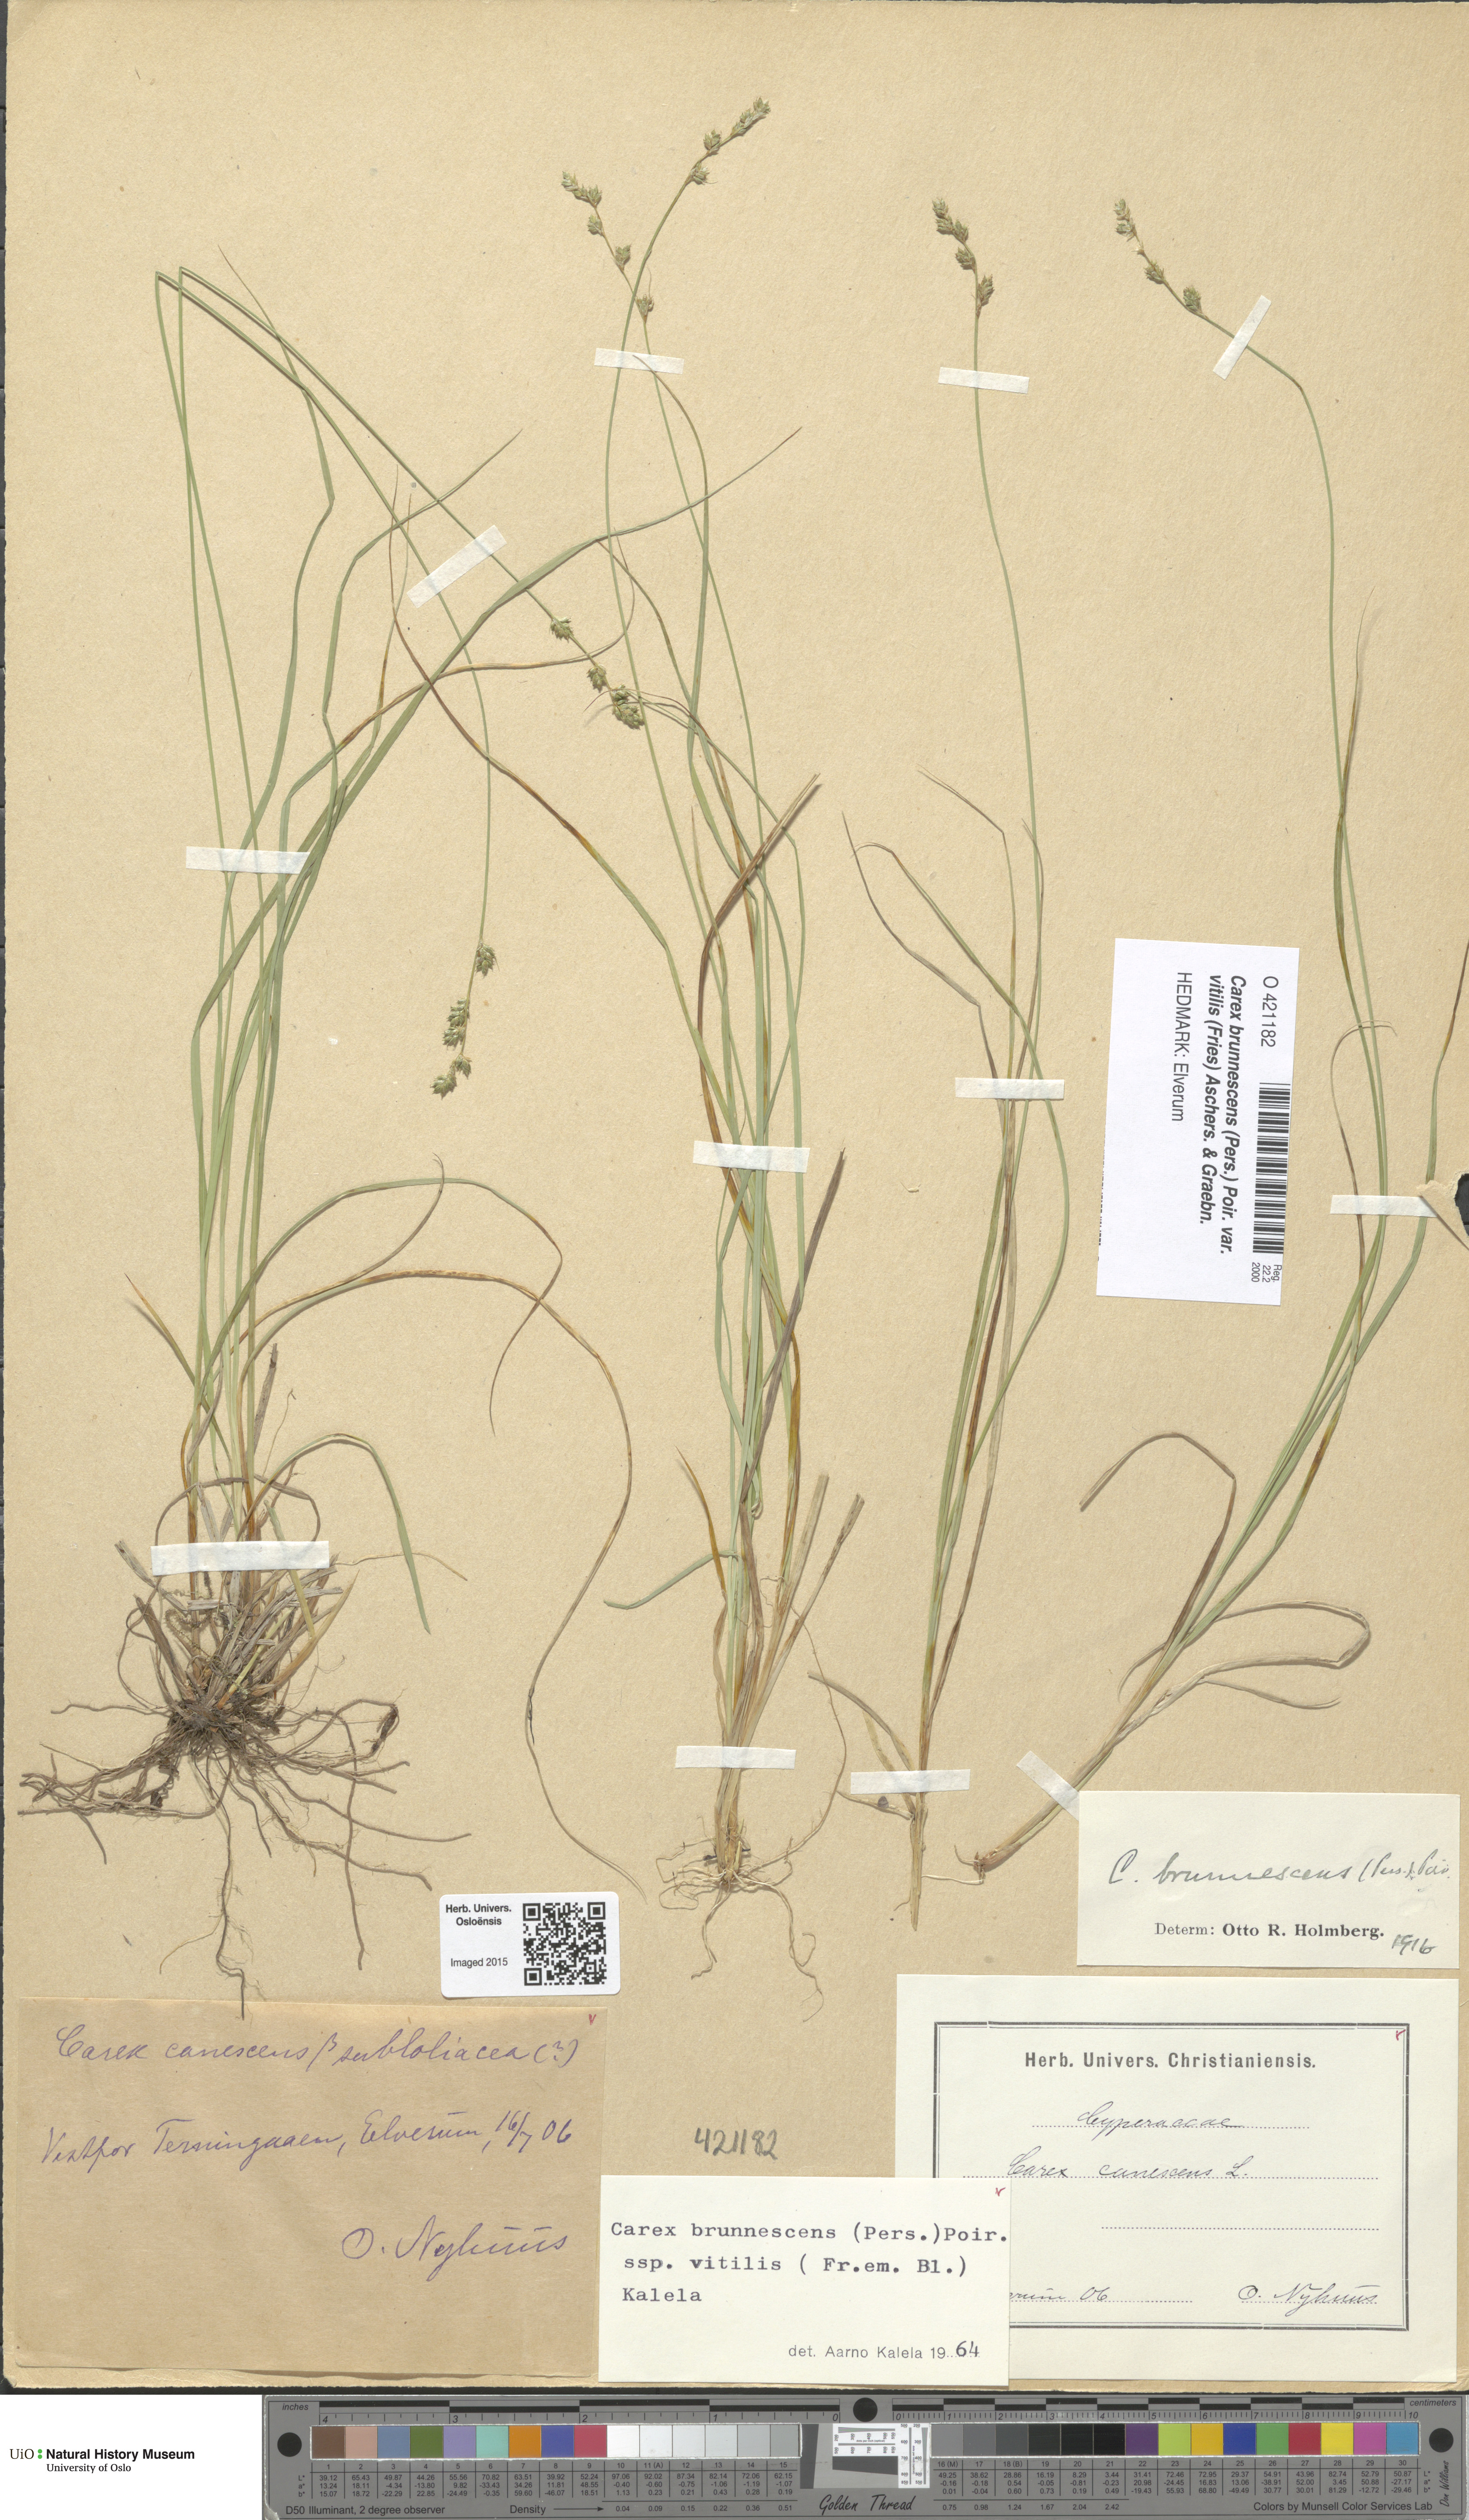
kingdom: Plantae
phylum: Tracheophyta
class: Liliopsida
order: Poales
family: Cyperaceae
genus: Carex
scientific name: Carex brunnescens
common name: Brown sedge
